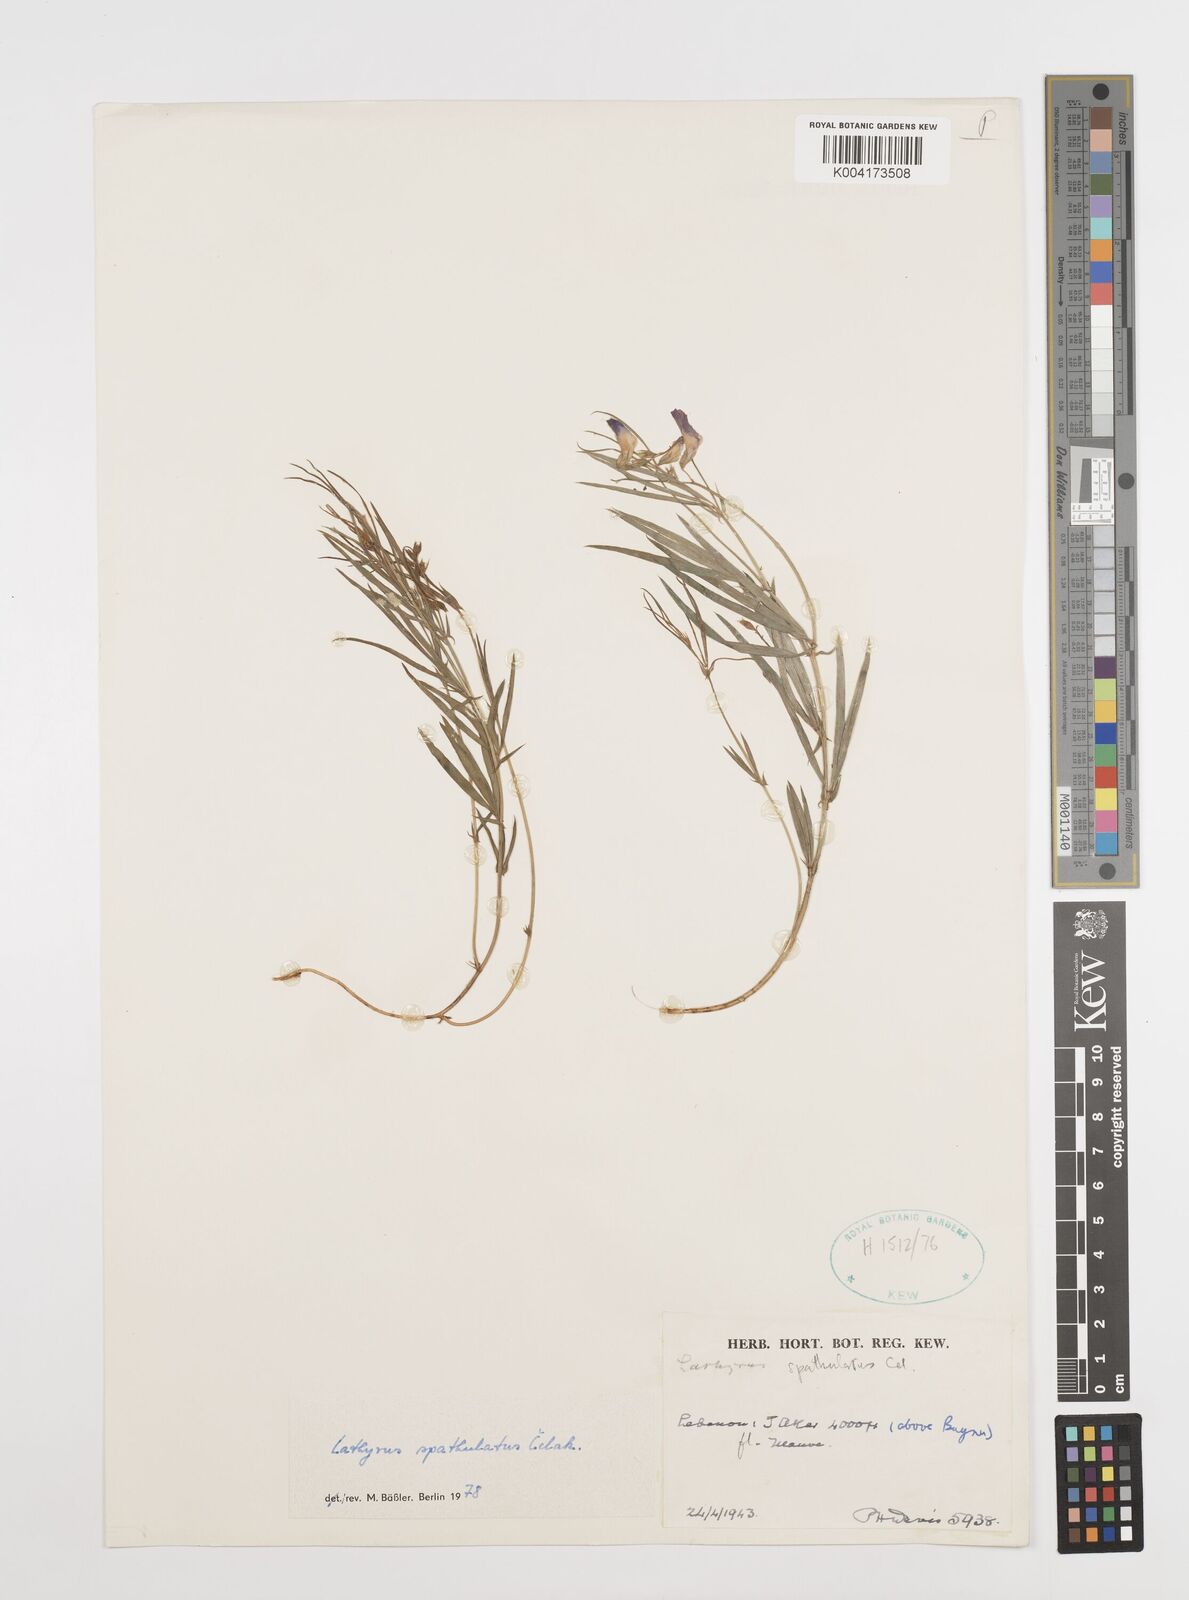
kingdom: Plantae
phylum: Tracheophyta
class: Magnoliopsida
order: Fabales
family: Fabaceae
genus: Lathyrus
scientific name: Lathyrus spathulatus
